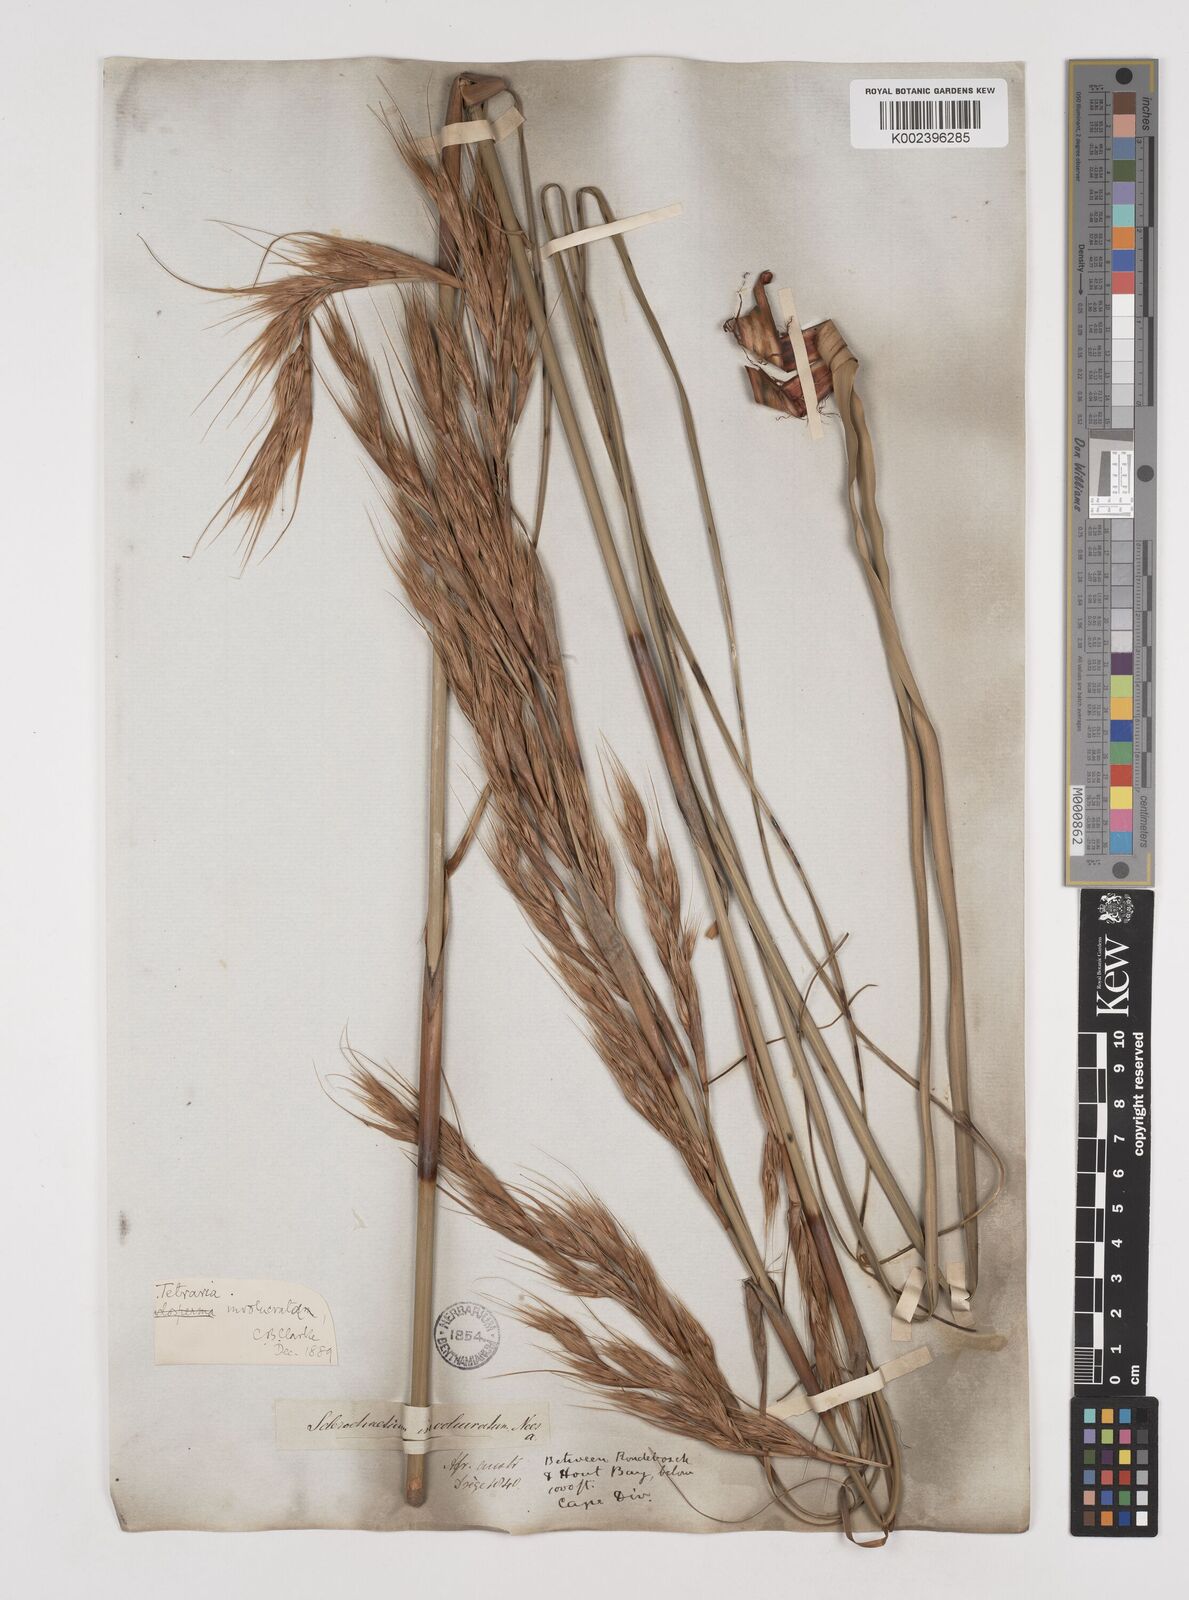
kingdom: Plantae
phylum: Tracheophyta
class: Liliopsida
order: Poales
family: Cyperaceae
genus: Tetraria
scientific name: Tetraria involucrata
